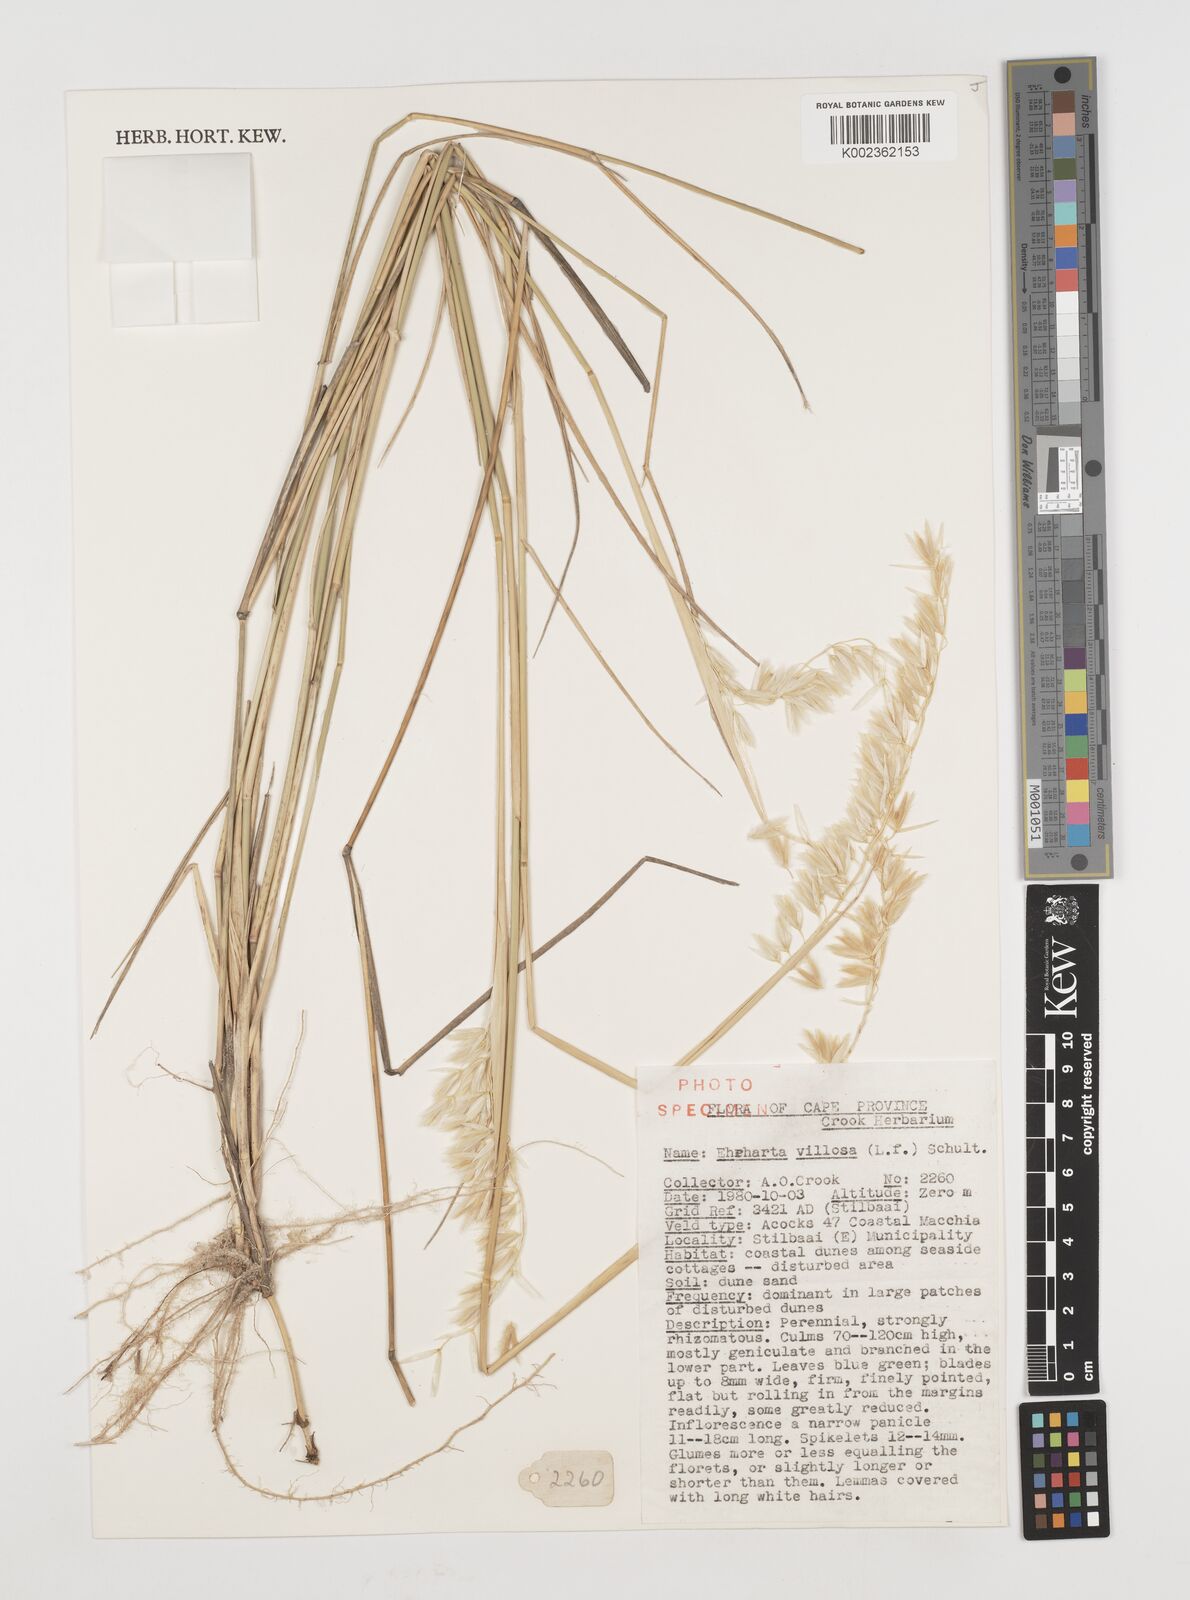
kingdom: Plantae
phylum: Tracheophyta
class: Liliopsida
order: Poales
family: Poaceae
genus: Ehrharta
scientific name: Ehrharta villosa
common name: Pyp grass
